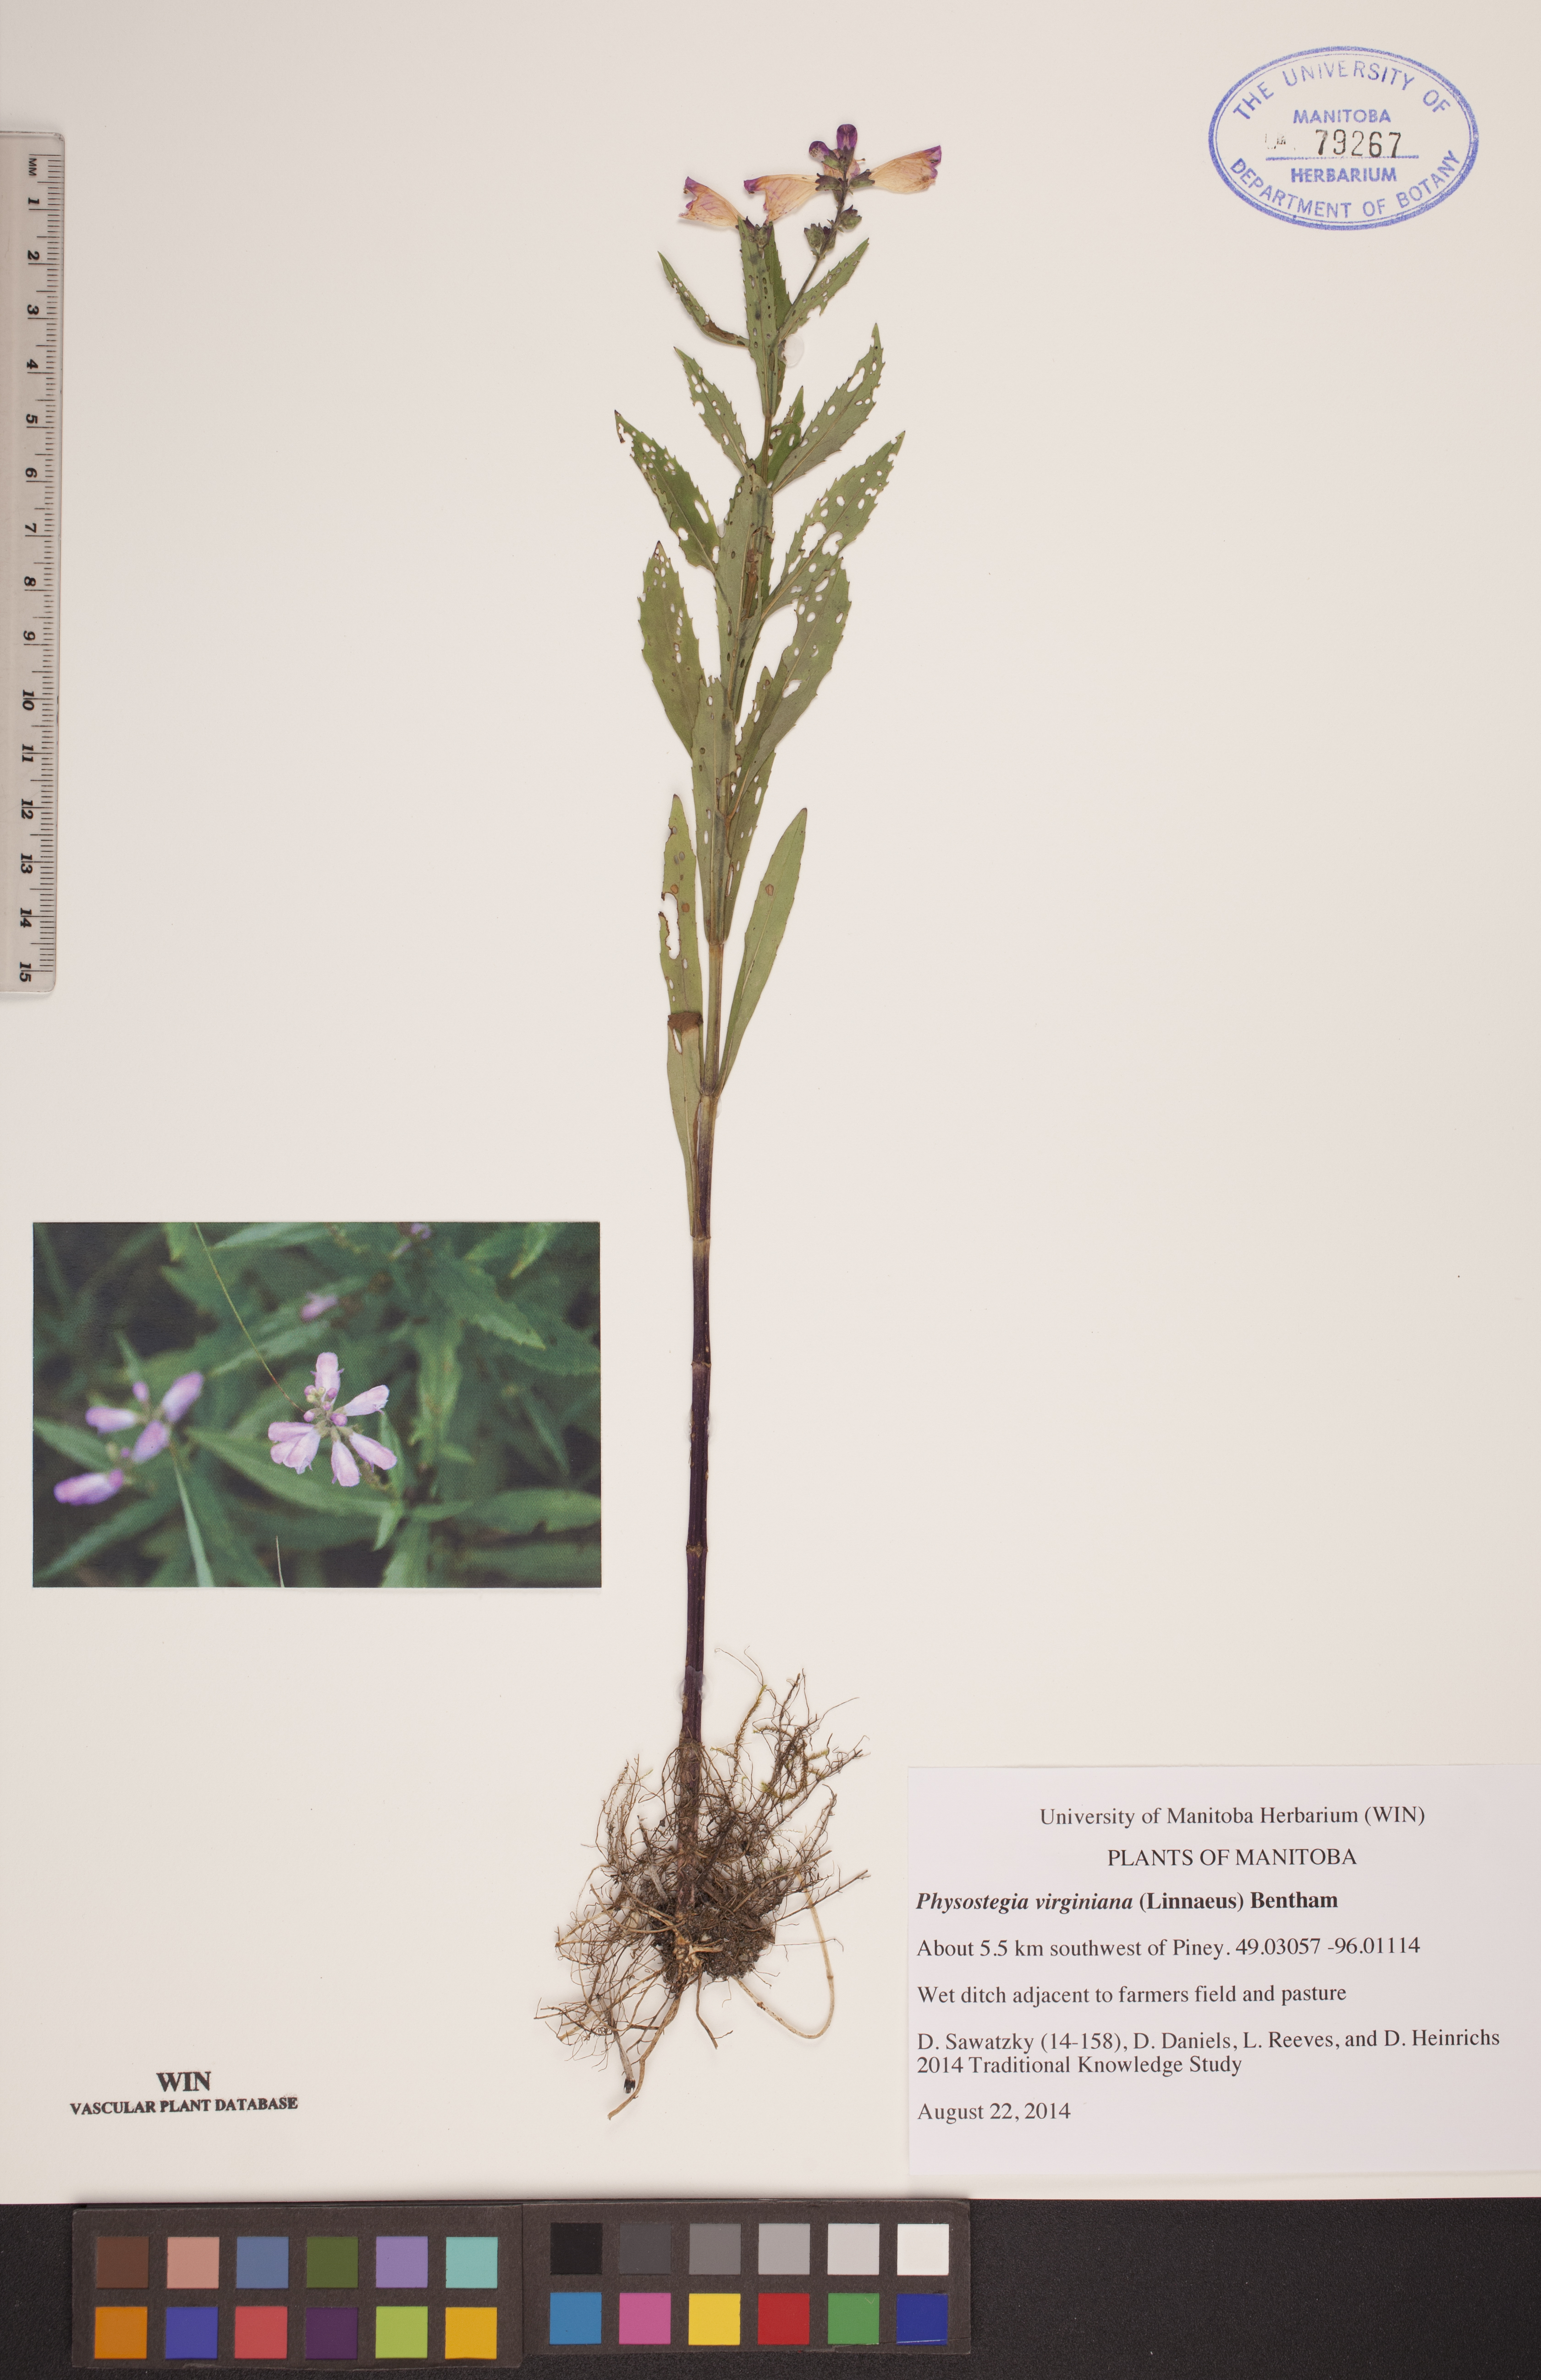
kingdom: Plantae
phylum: Tracheophyta
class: Magnoliopsida
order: Lamiales
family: Lamiaceae
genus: Physostegia
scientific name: Physostegia virginiana
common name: Obedient-plant
